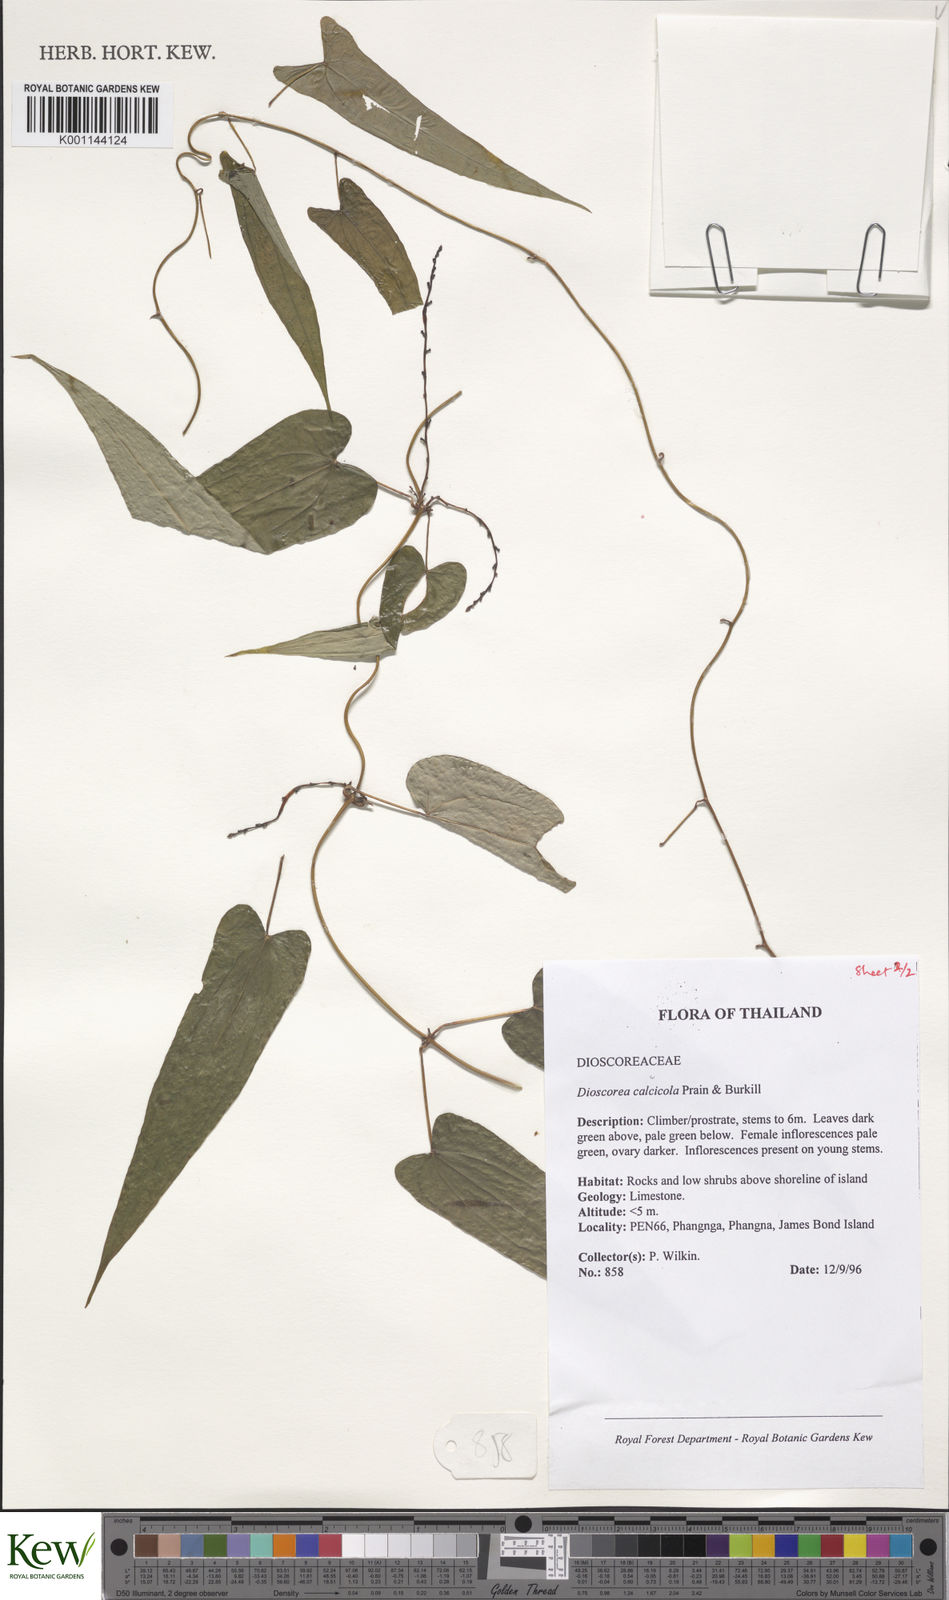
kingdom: Plantae
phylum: Tracheophyta
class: Liliopsida
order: Dioscoreales
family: Dioscoreaceae
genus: Dioscorea
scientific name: Dioscorea calcicola
